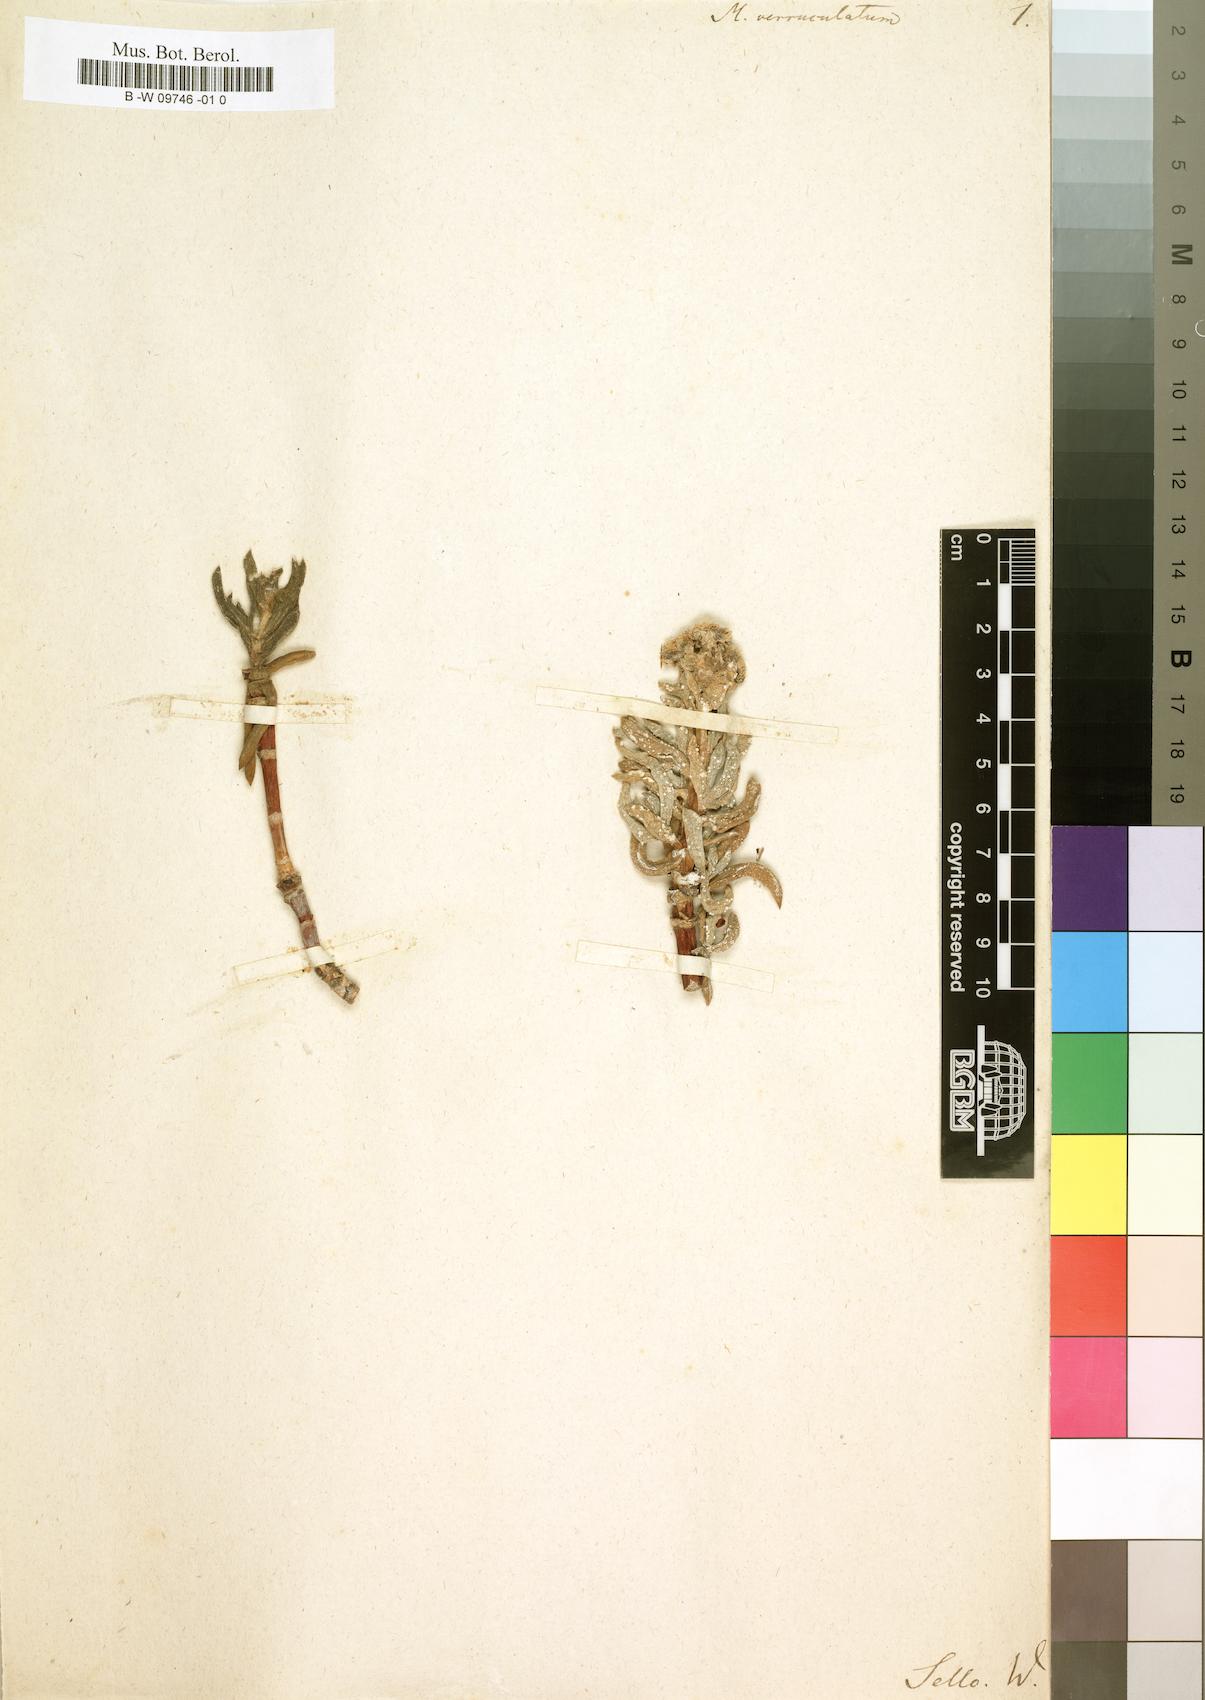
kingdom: Plantae
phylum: Tracheophyta
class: Magnoliopsida
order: Caryophyllales
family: Aizoaceae
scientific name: Aizoaceae
